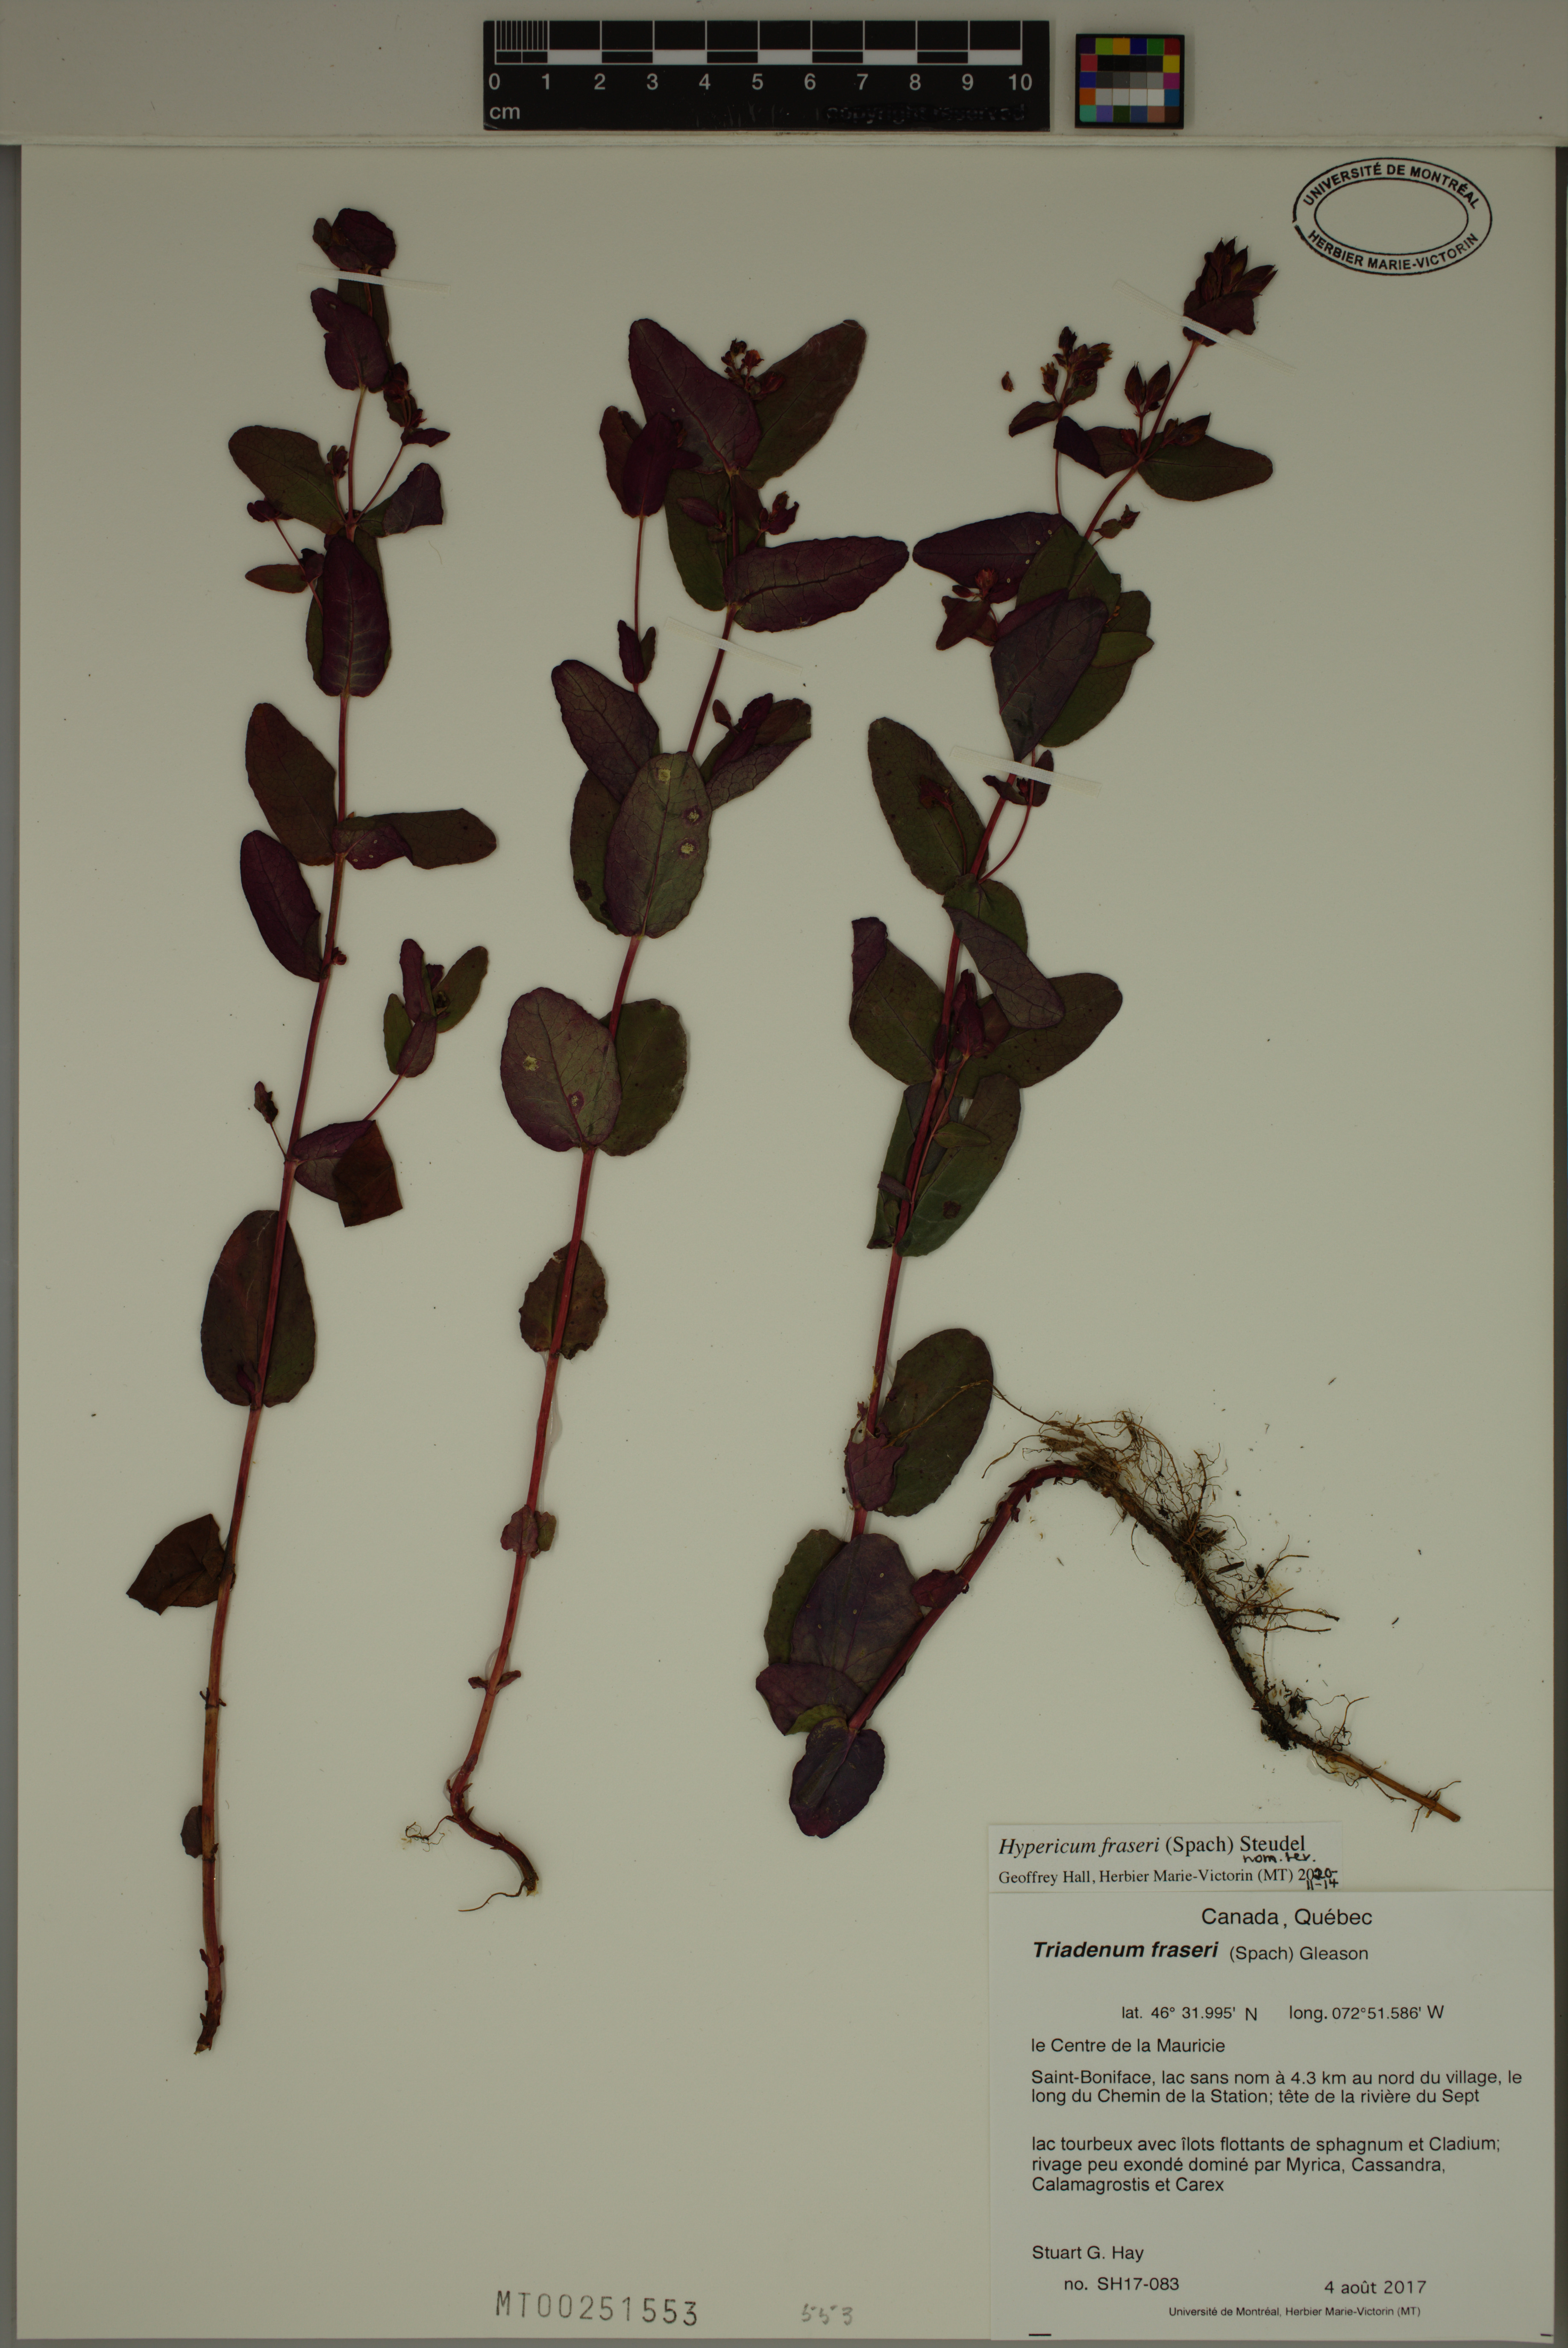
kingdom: Plantae
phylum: Tracheophyta
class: Magnoliopsida
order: Malpighiales
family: Hypericaceae
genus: Triadenum
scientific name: Triadenum fraseri
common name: Fraser's marsh st. johnswort
